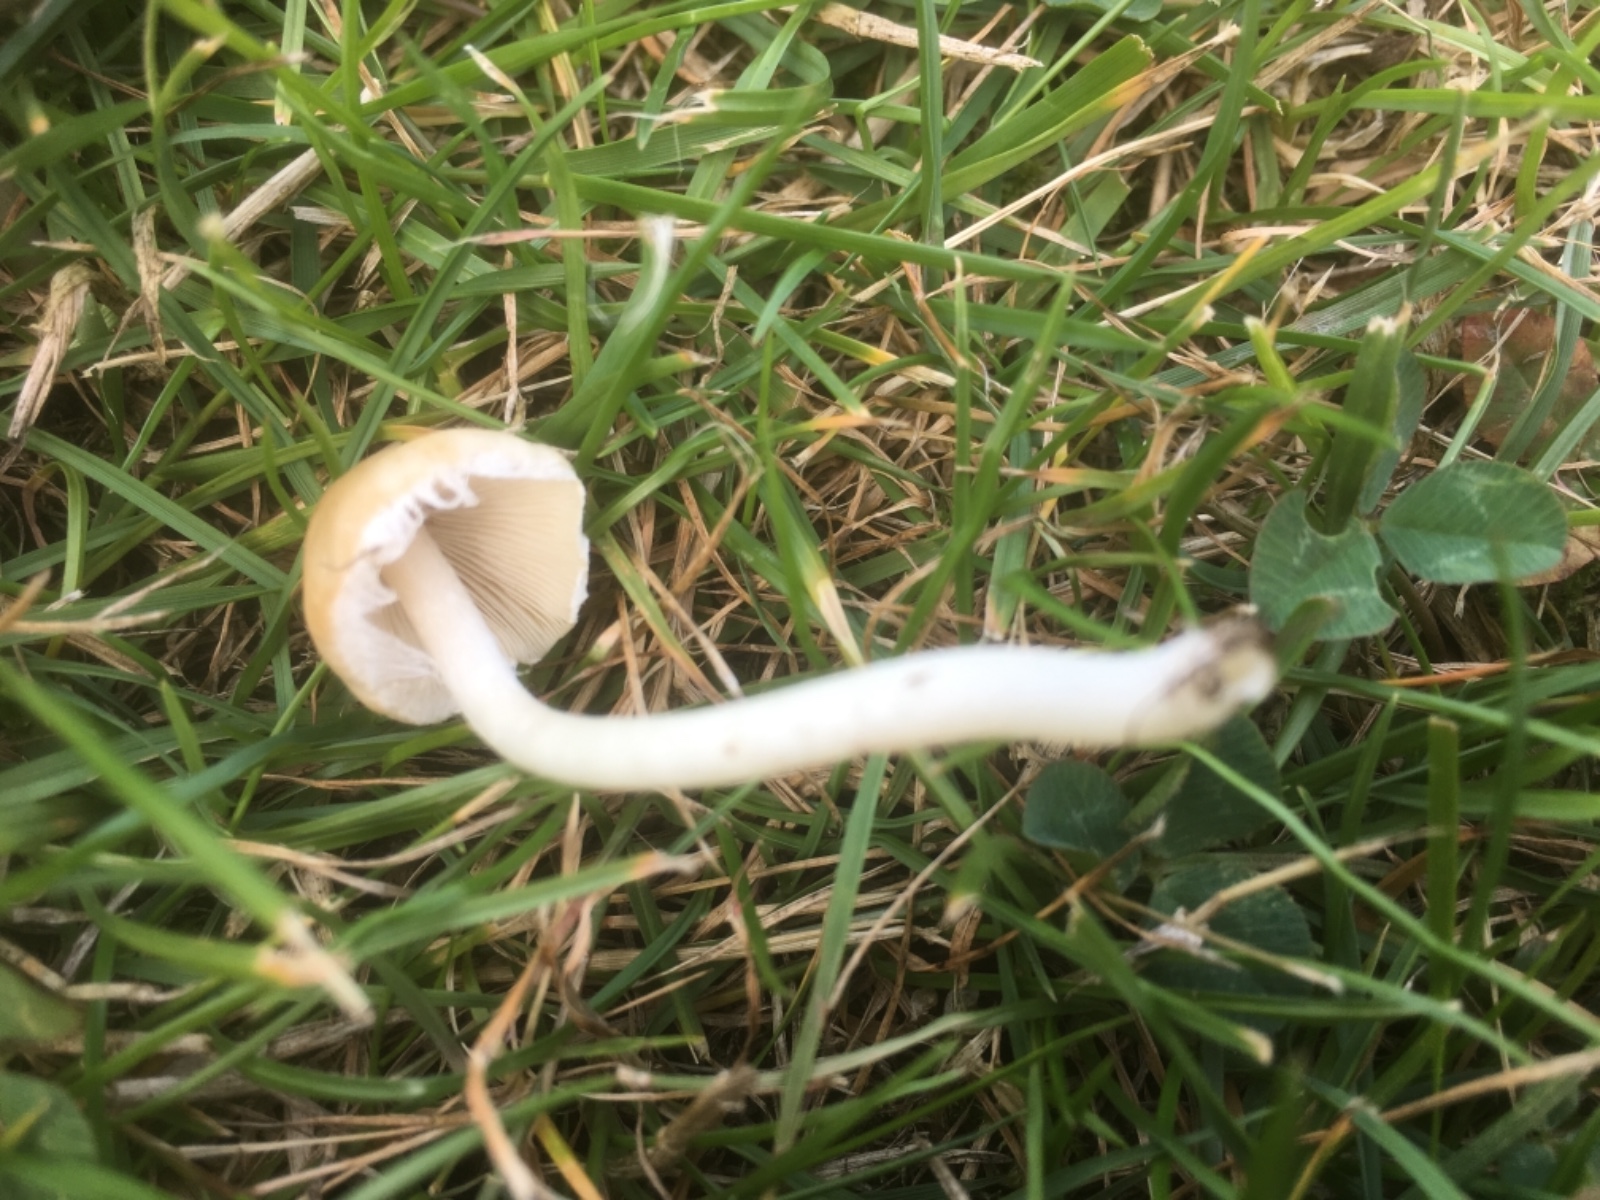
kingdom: Fungi
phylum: Basidiomycota
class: Agaricomycetes
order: Agaricales
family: Psathyrellaceae
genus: Candolleomyces
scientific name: Candolleomyces candolleanus
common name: Candolles mørkhat
